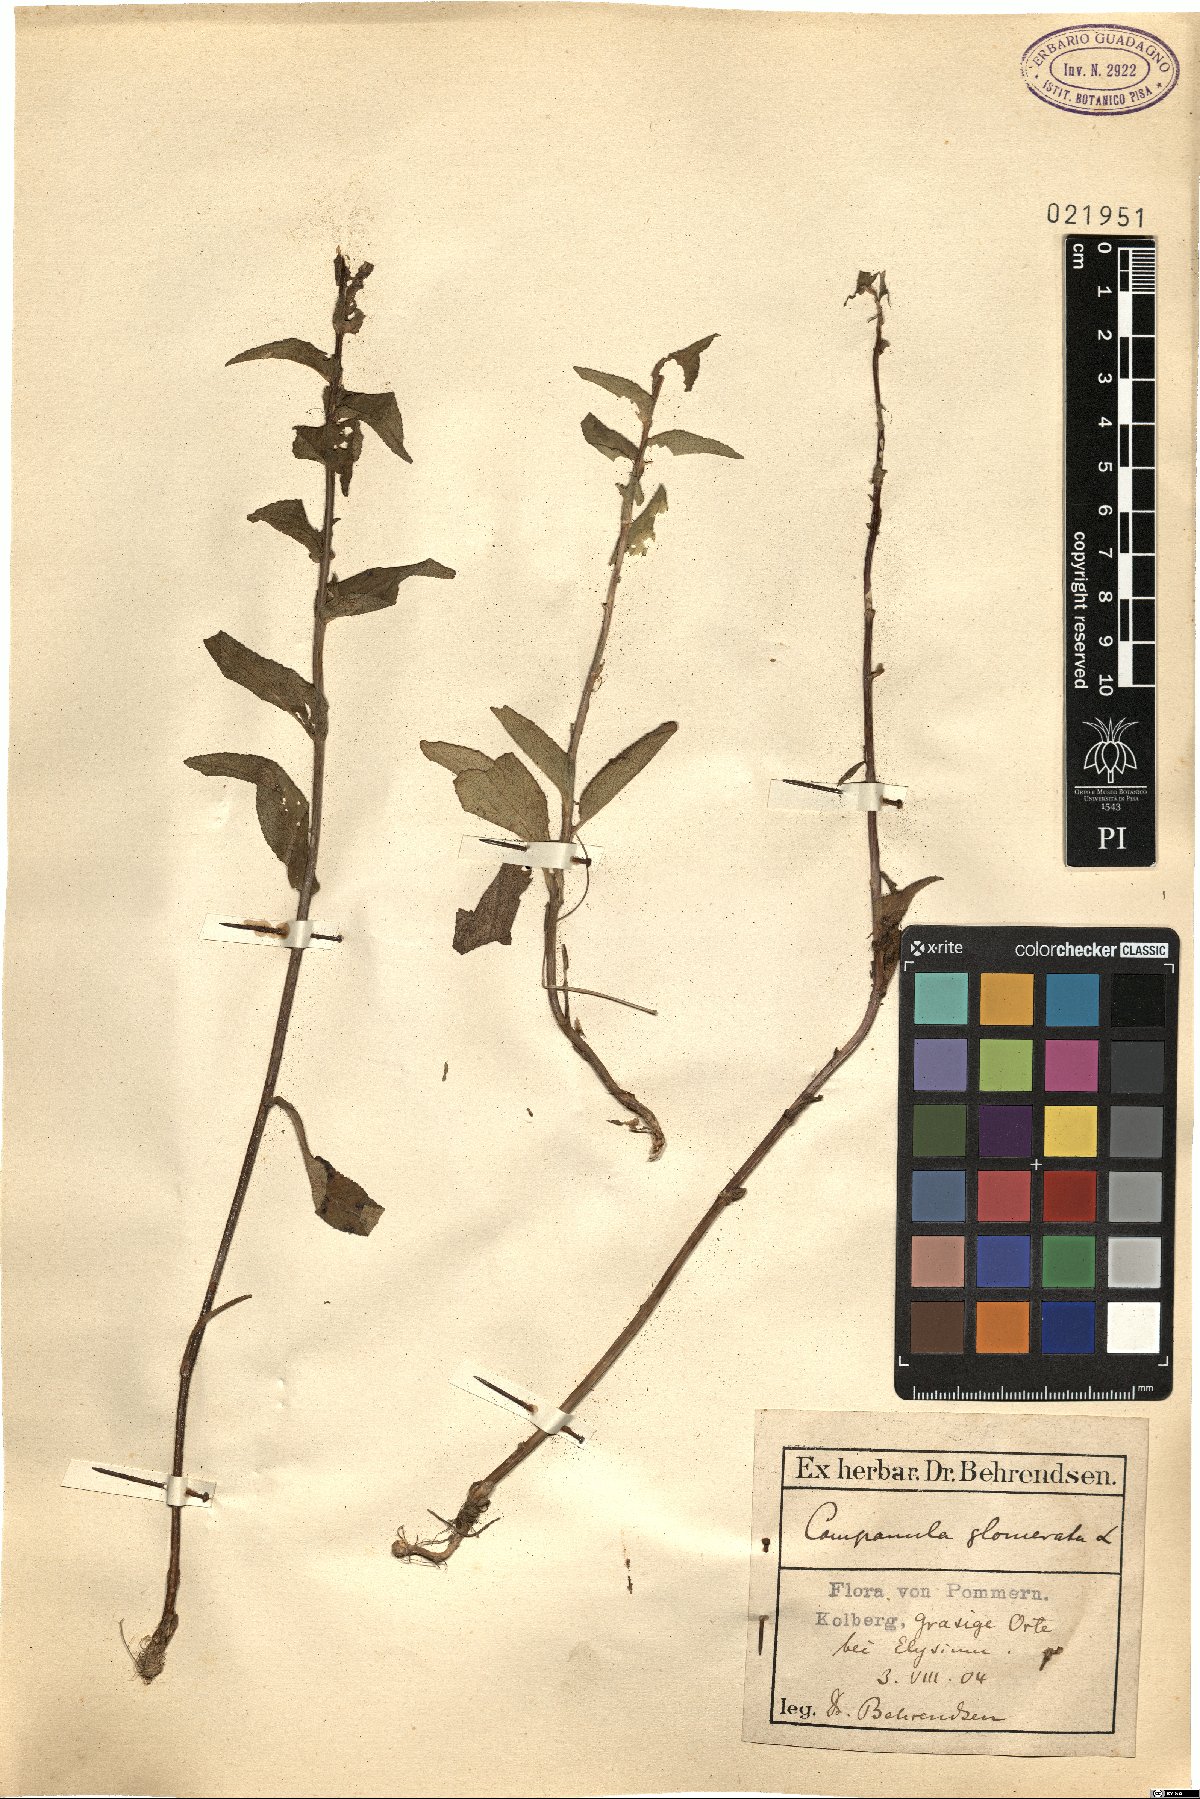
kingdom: Plantae
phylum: Tracheophyta
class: Magnoliopsida
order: Asterales
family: Campanulaceae
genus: Campanula
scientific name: Campanula glomerata
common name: Clustered bellflower
